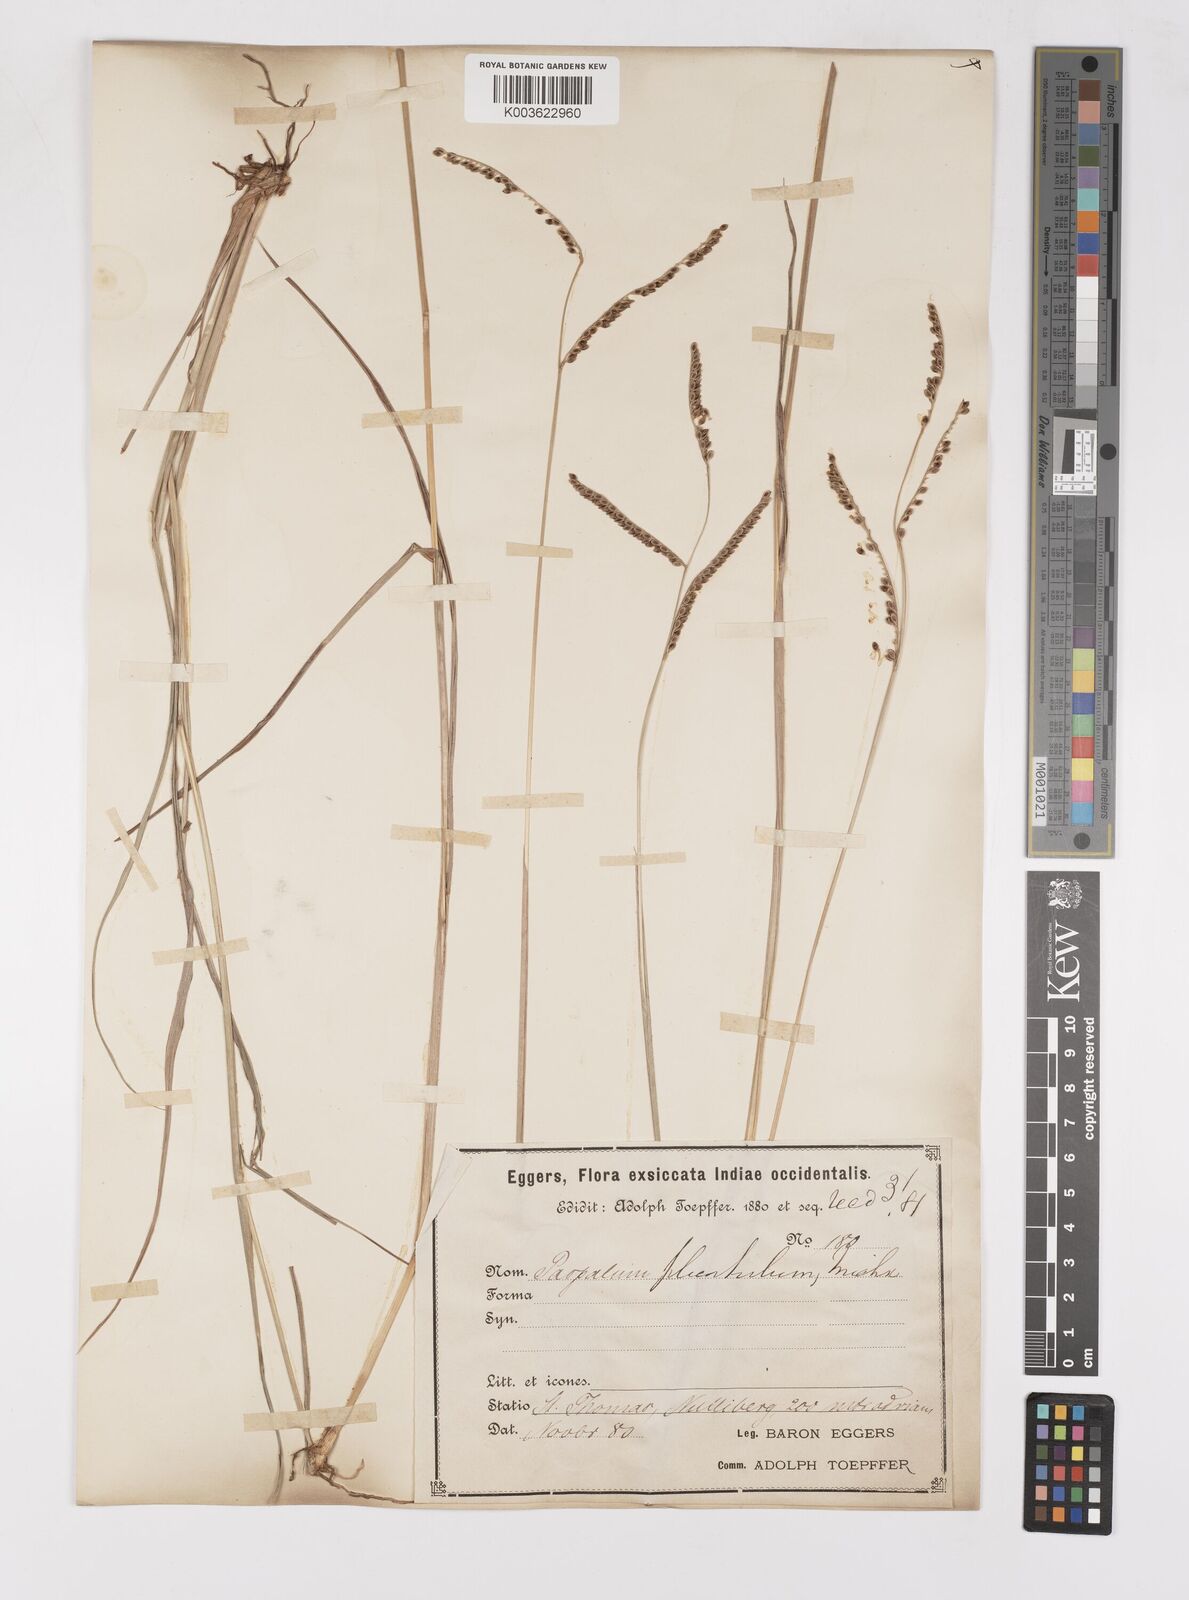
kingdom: Plantae
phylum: Tracheophyta
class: Liliopsida
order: Poales
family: Poaceae
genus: Paspalum
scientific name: Paspalum plicatulum
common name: Top paspalum
